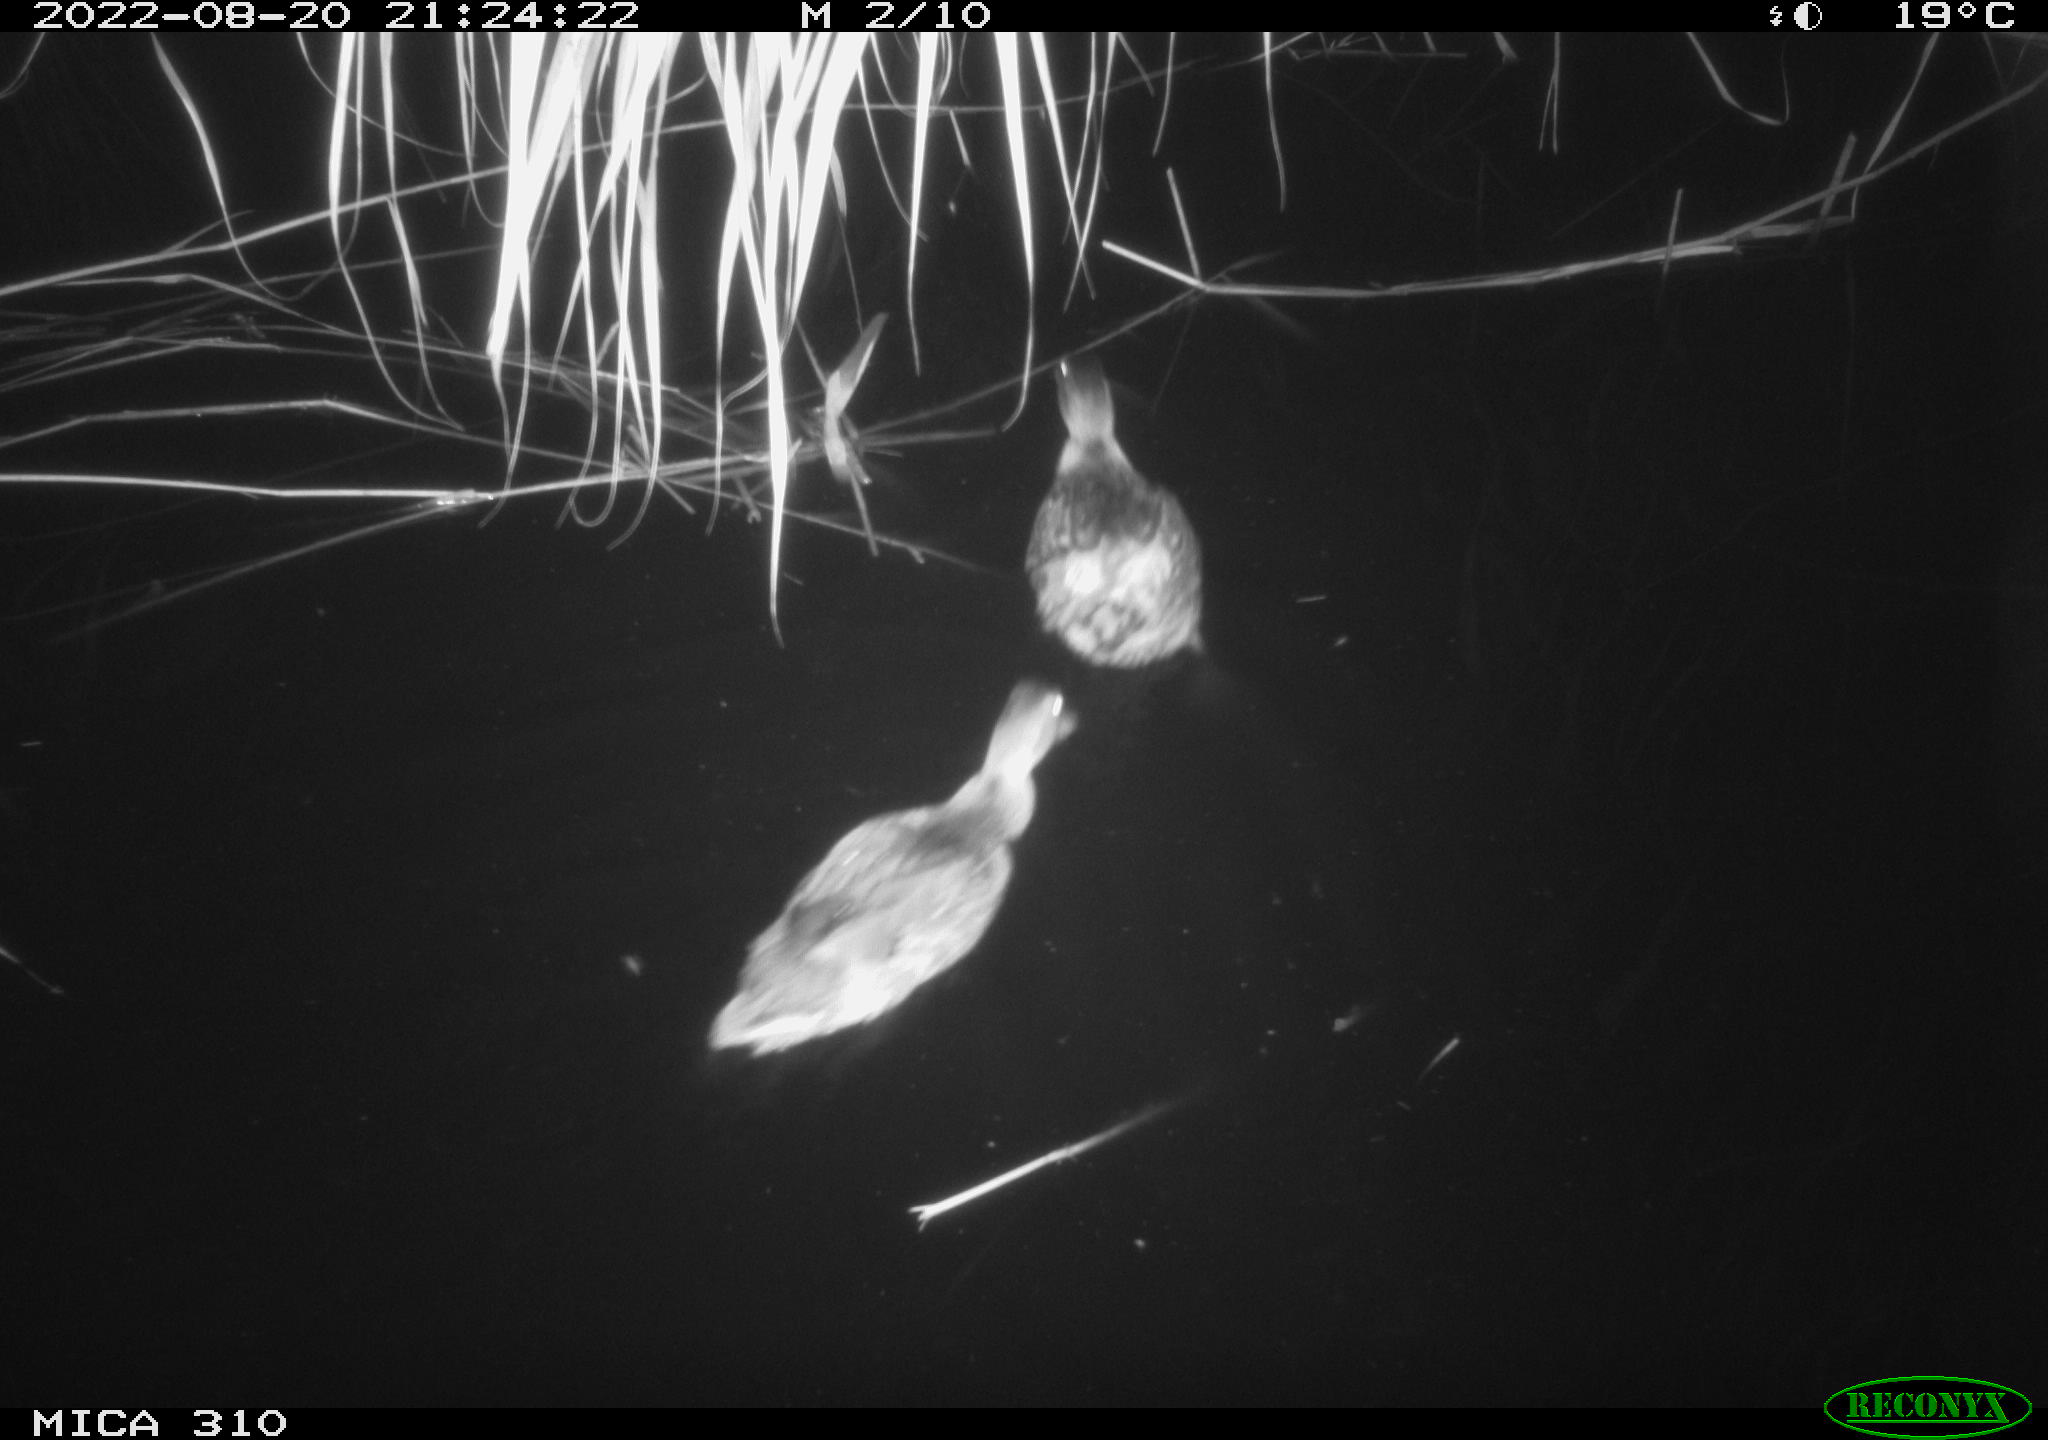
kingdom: Animalia
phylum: Chordata
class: Aves
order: Anseriformes
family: Anatidae
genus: Anas
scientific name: Anas platyrhynchos
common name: Mallard
